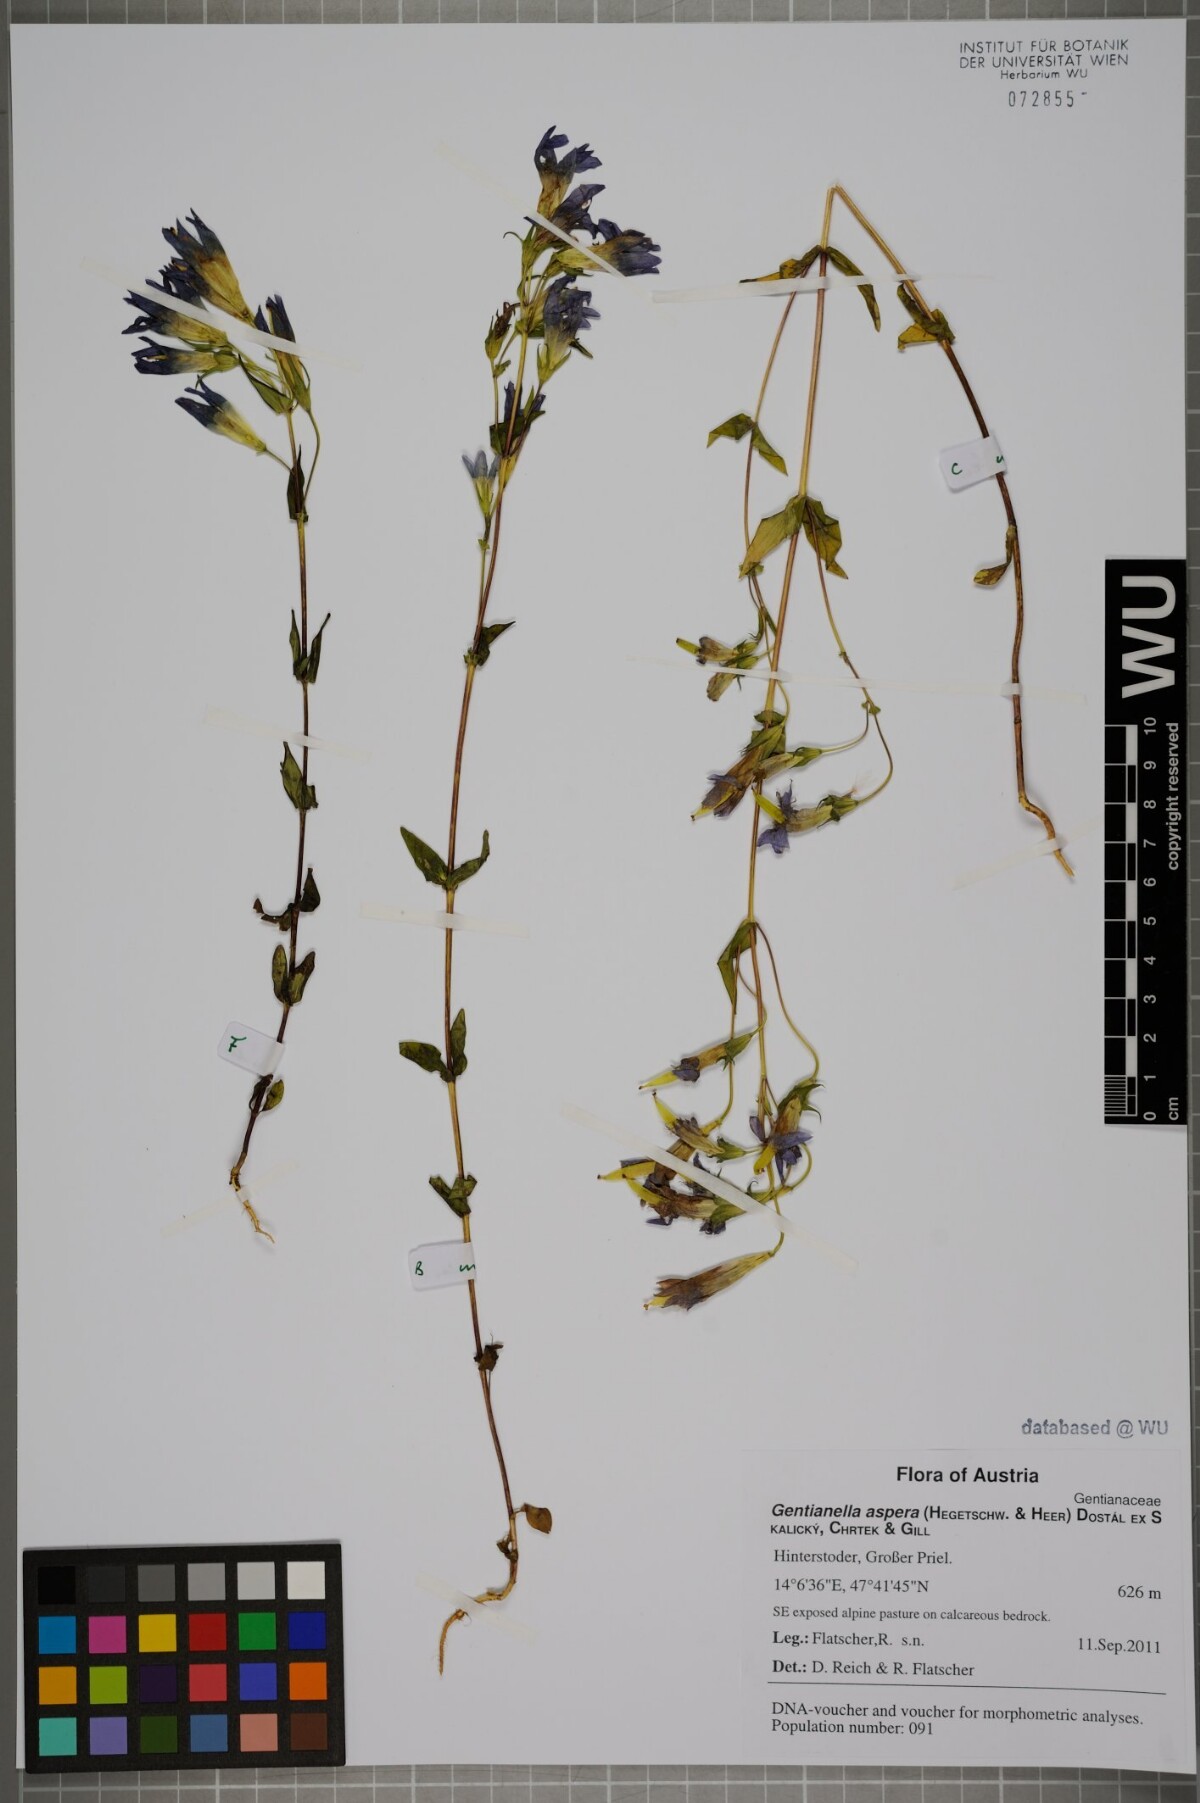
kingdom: Plantae
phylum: Tracheophyta
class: Magnoliopsida
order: Gentianales
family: Gentianaceae
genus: Gentianella
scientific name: Gentianella obtusifolia
